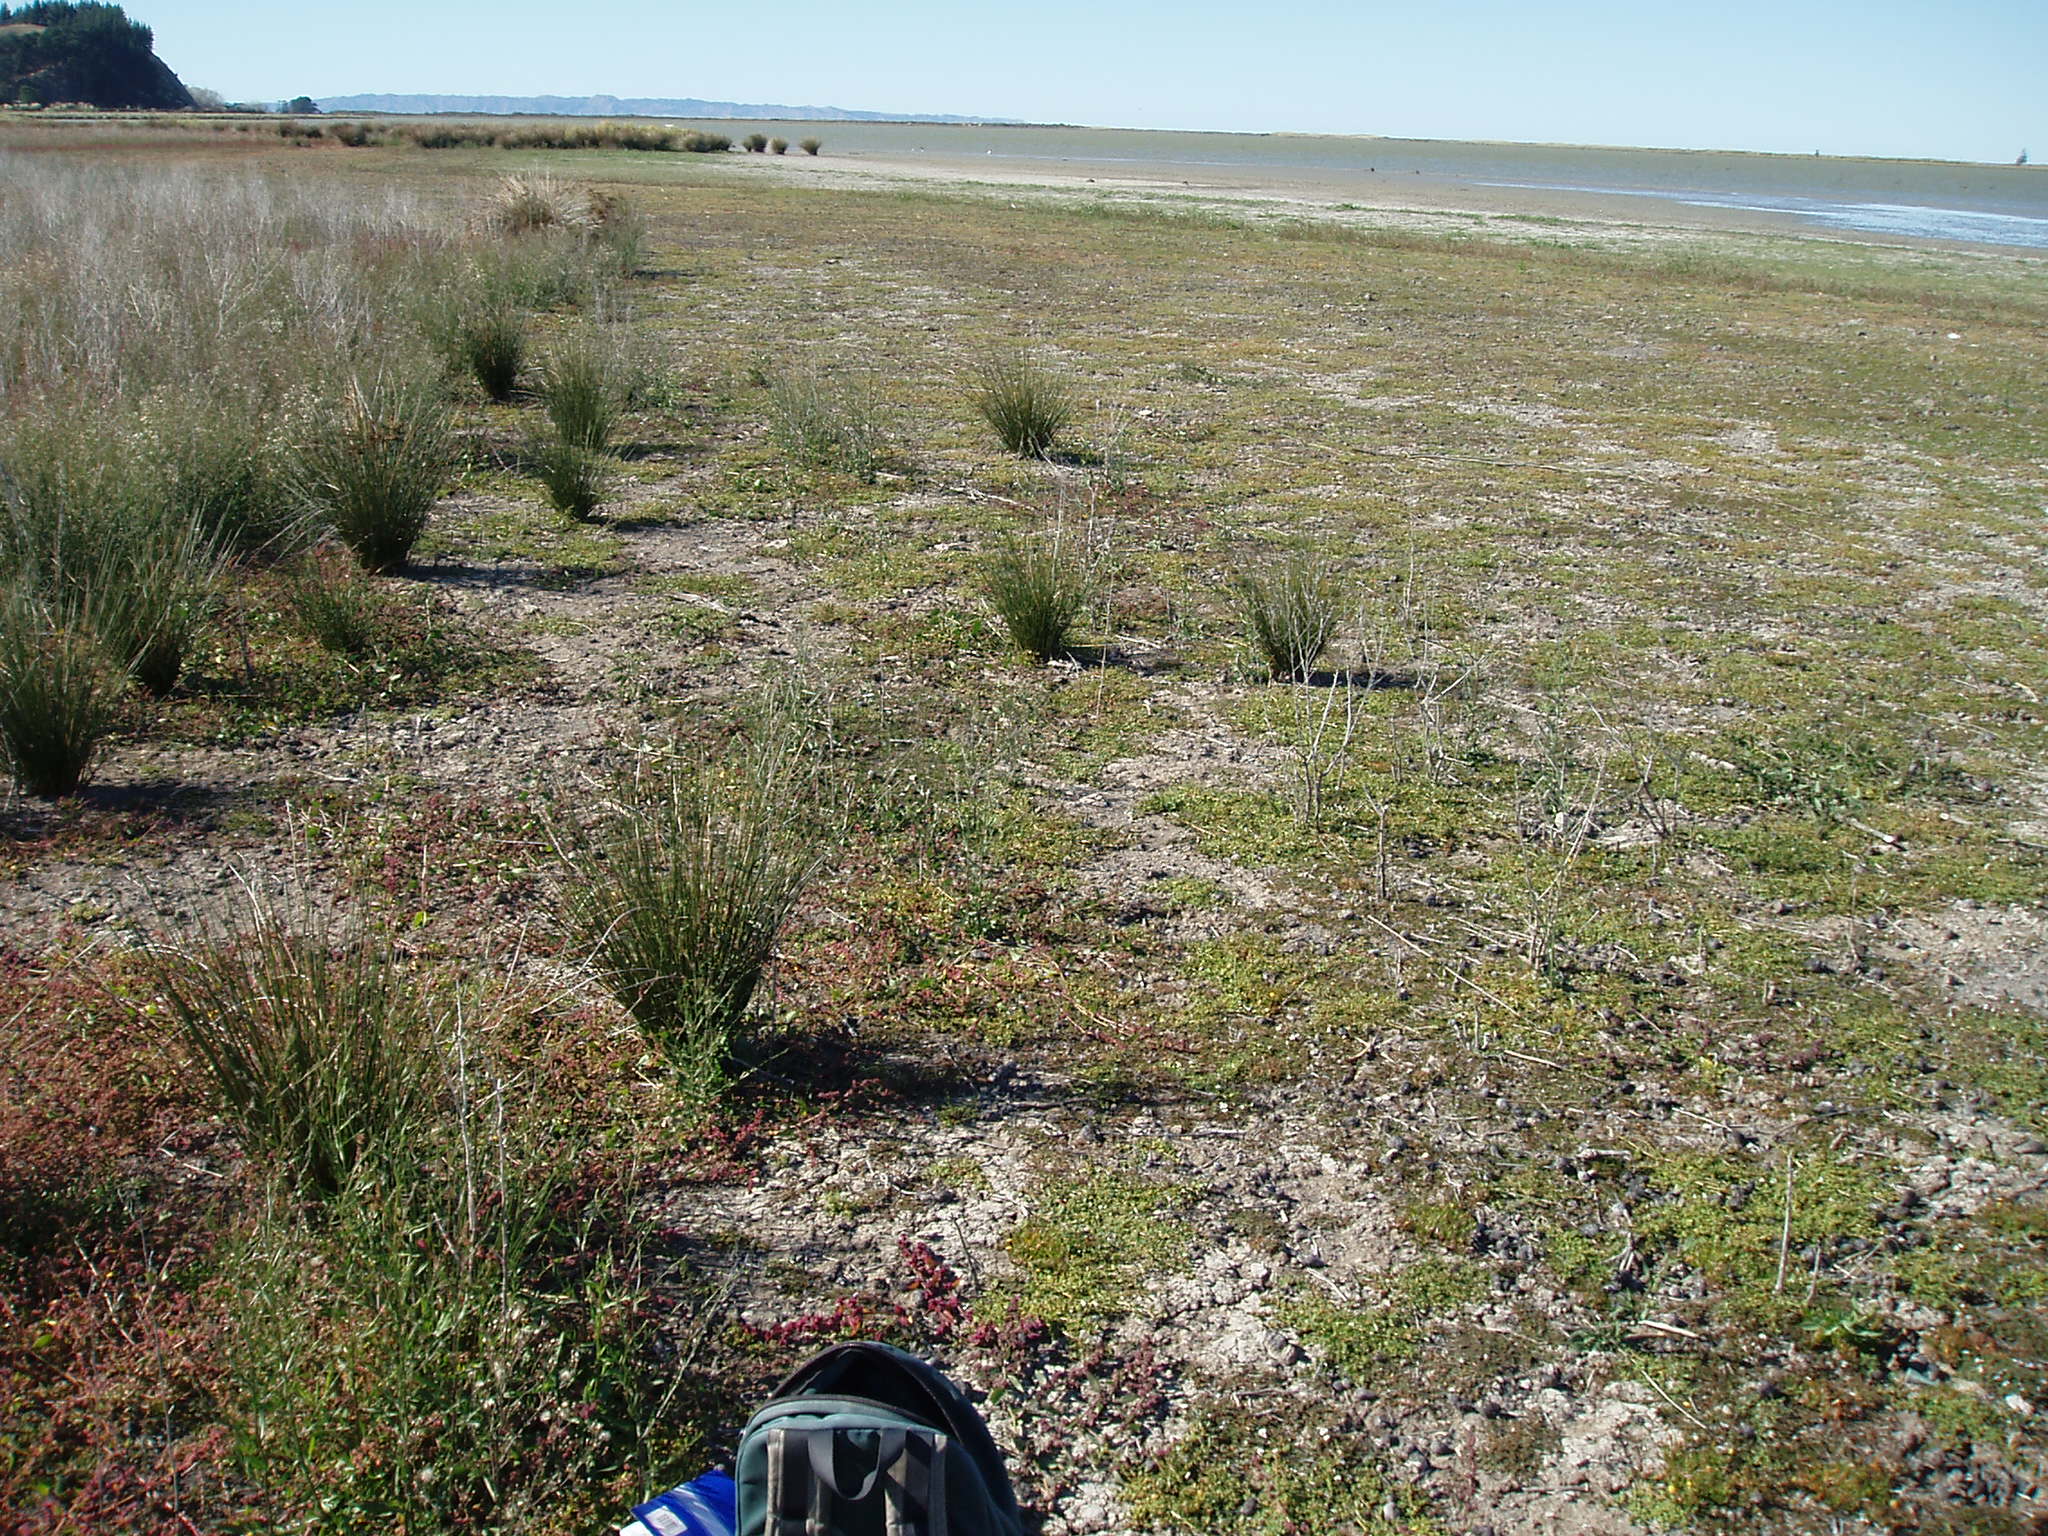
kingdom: Plantae
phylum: Tracheophyta
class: Magnoliopsida
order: Lamiales
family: Phrymaceae
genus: Thyridia
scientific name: Thyridia repens
